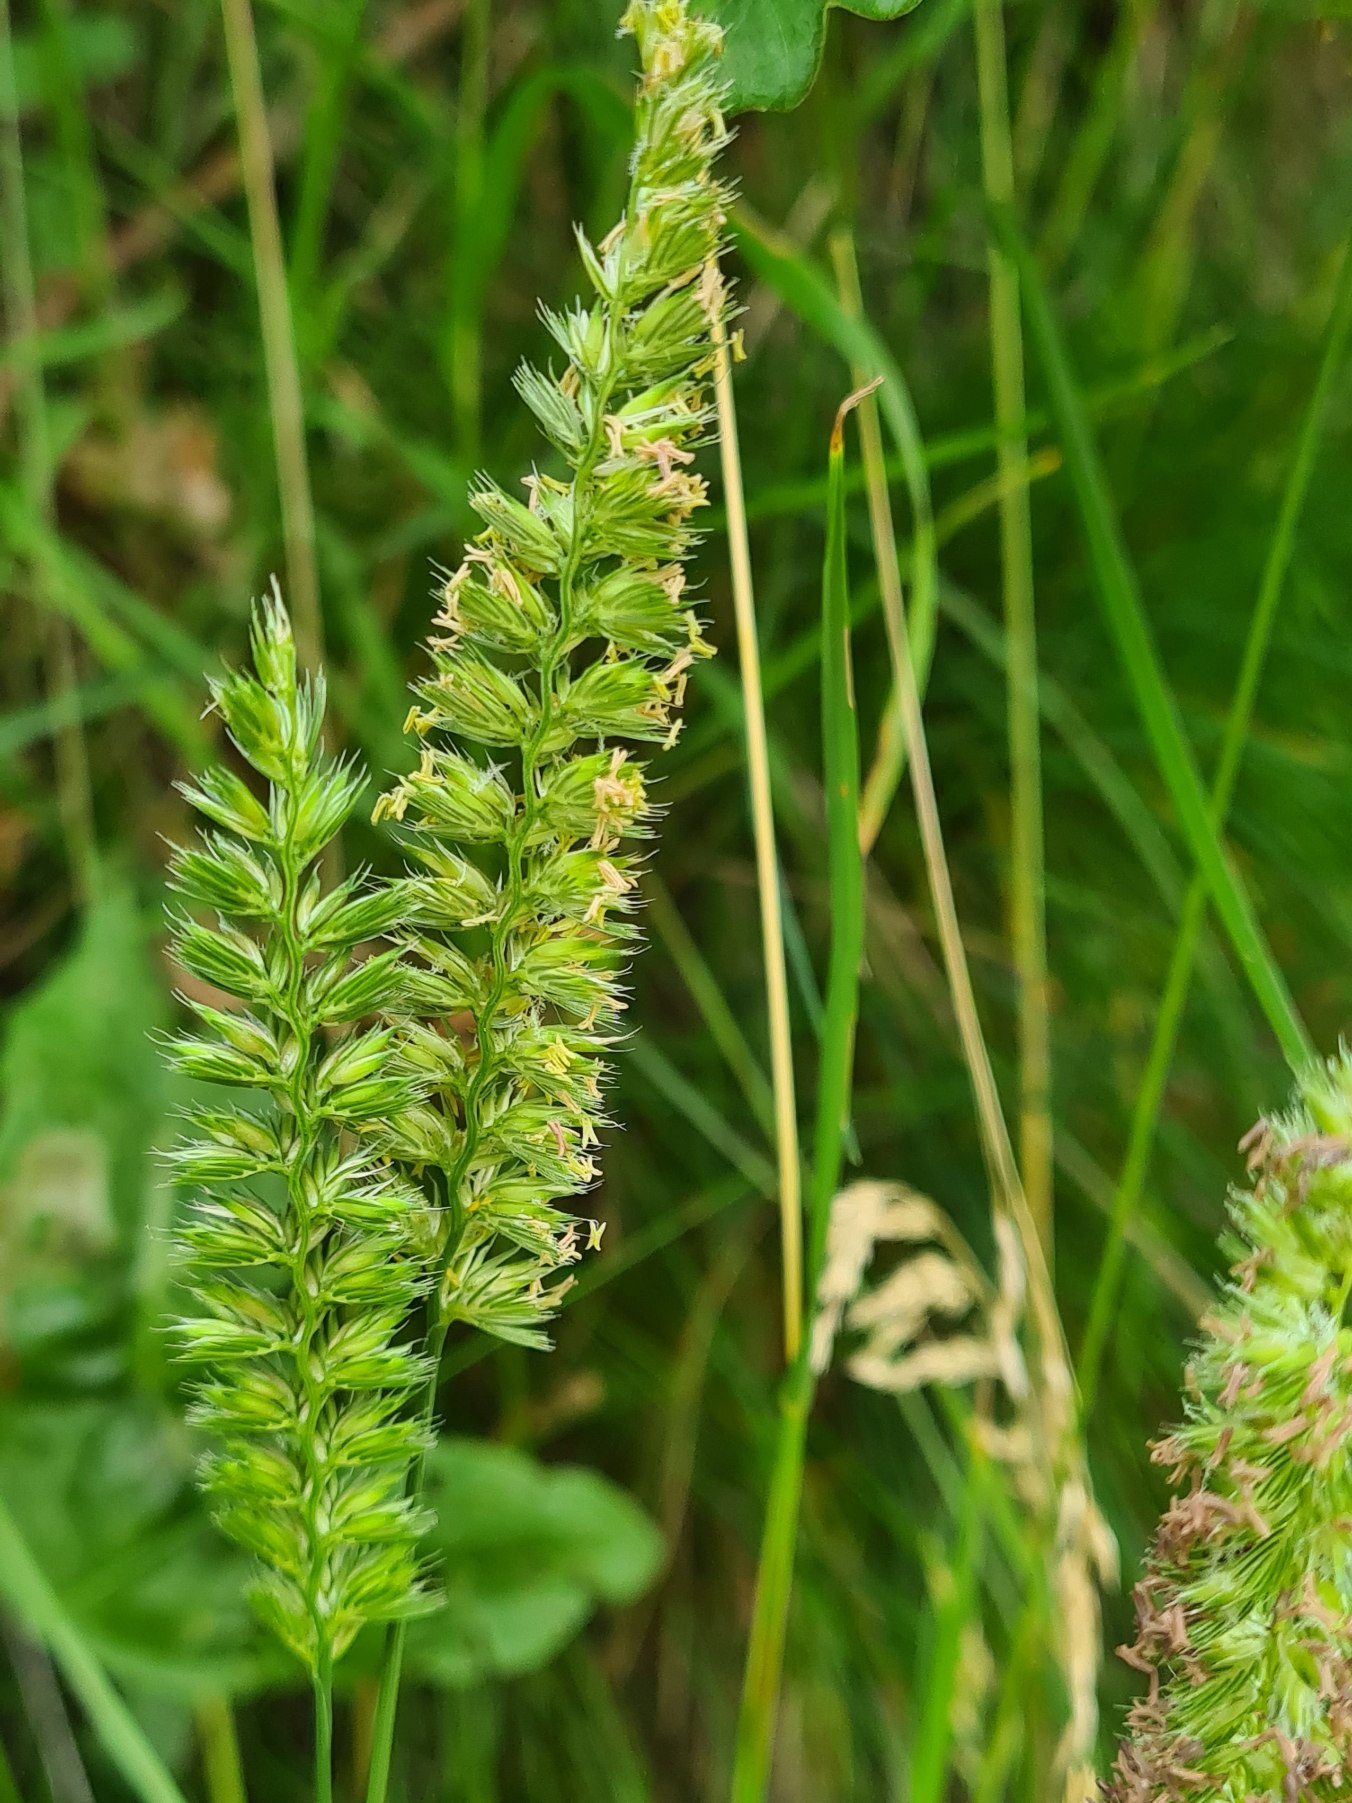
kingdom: Plantae
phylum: Tracheophyta
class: Liliopsida
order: Poales
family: Poaceae
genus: Cynosurus
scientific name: Cynosurus cristatus
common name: Kamgræs
